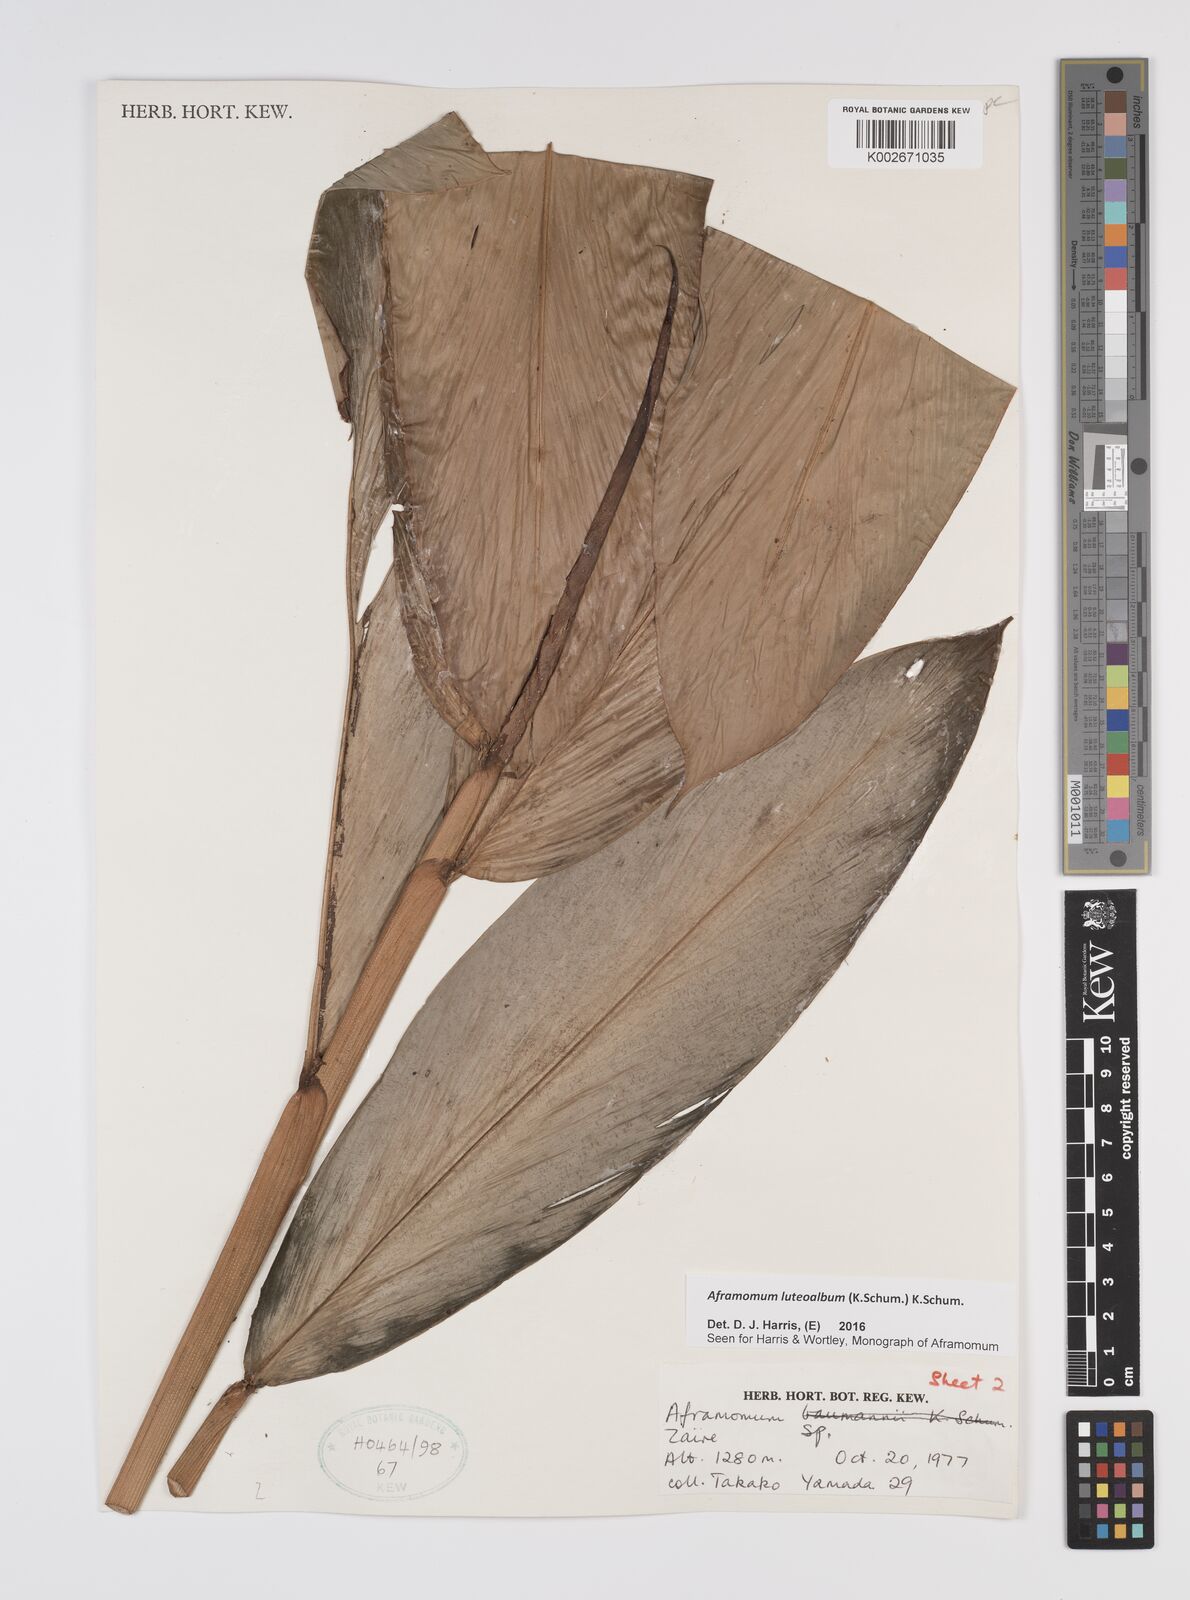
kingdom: Plantae
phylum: Tracheophyta
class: Liliopsida
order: Zingiberales
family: Zingiberaceae
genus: Aframomum
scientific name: Aframomum luteoalbum
